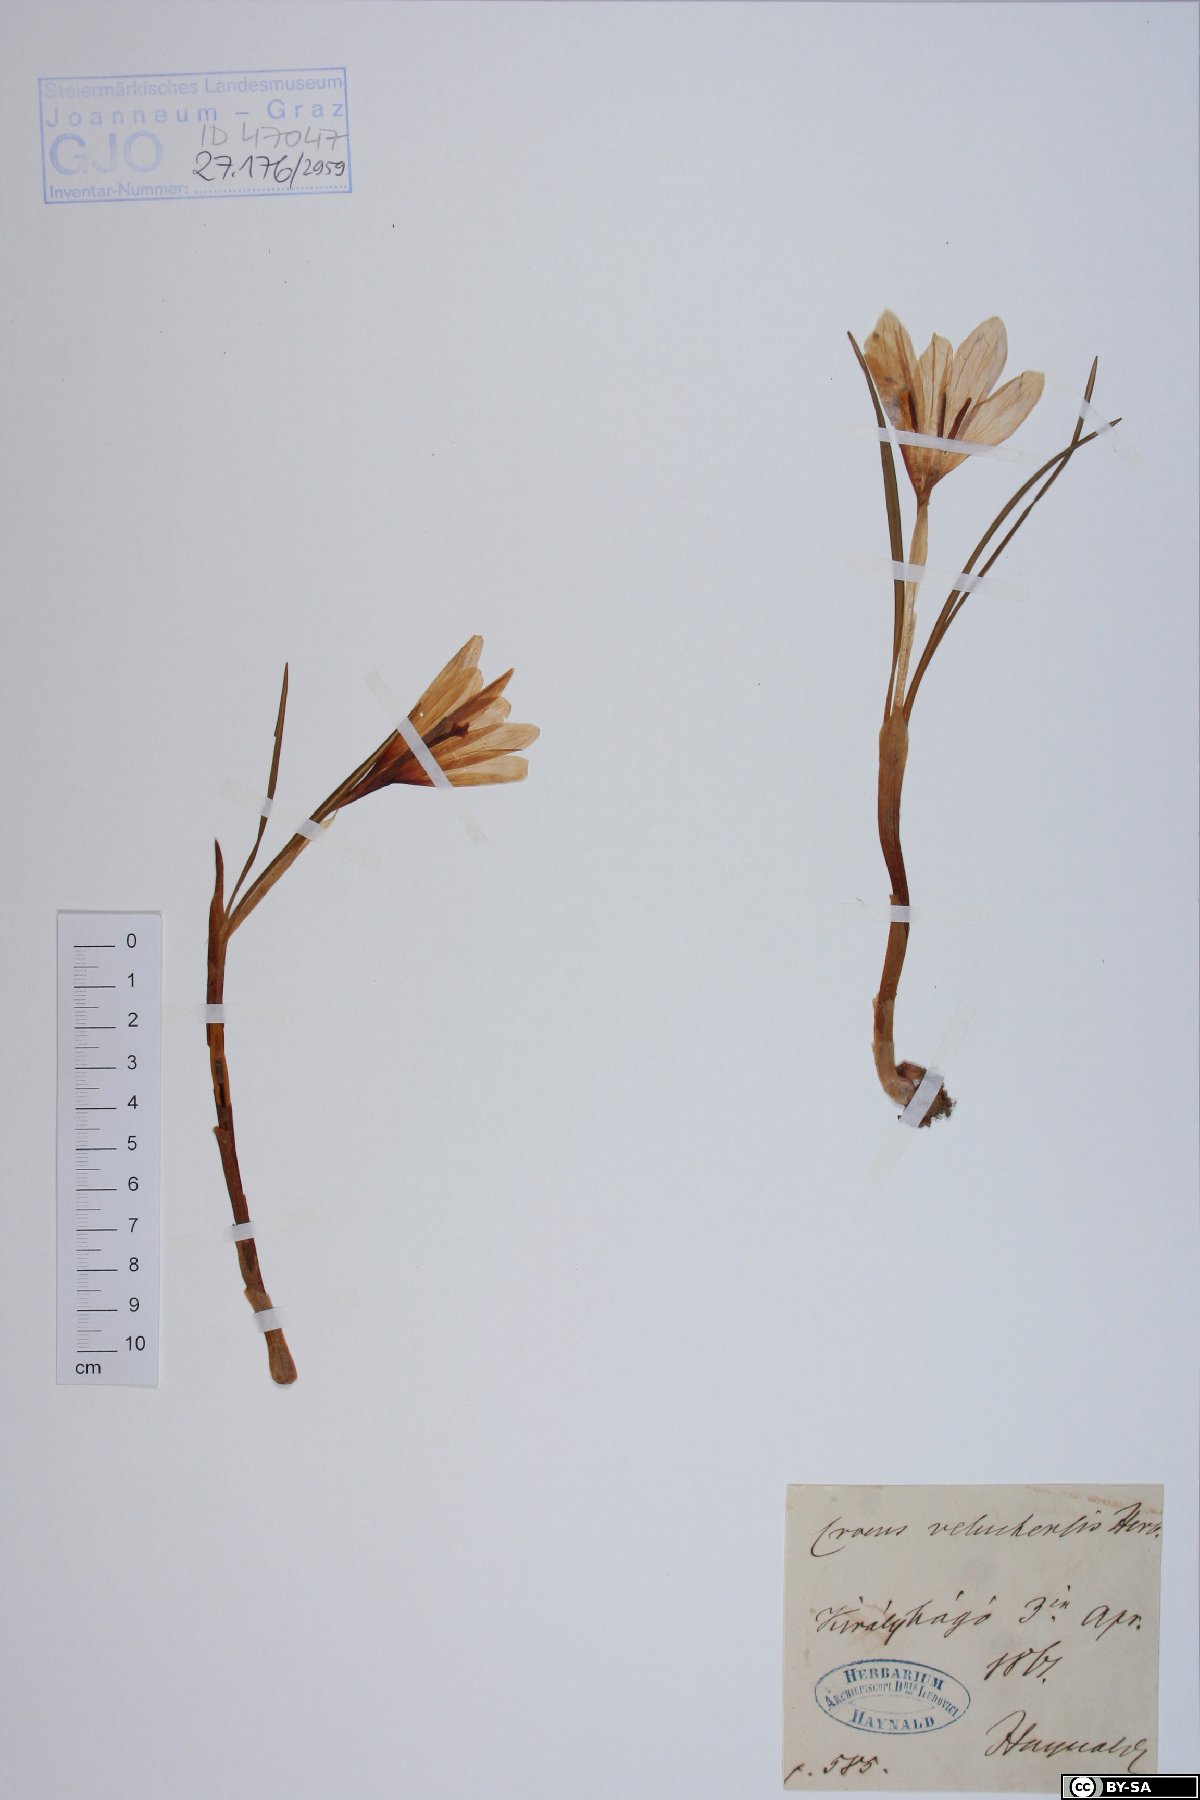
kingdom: Plantae
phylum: Tracheophyta
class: Liliopsida
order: Asparagales
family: Iridaceae
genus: Crocus
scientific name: Crocus veluchensis
